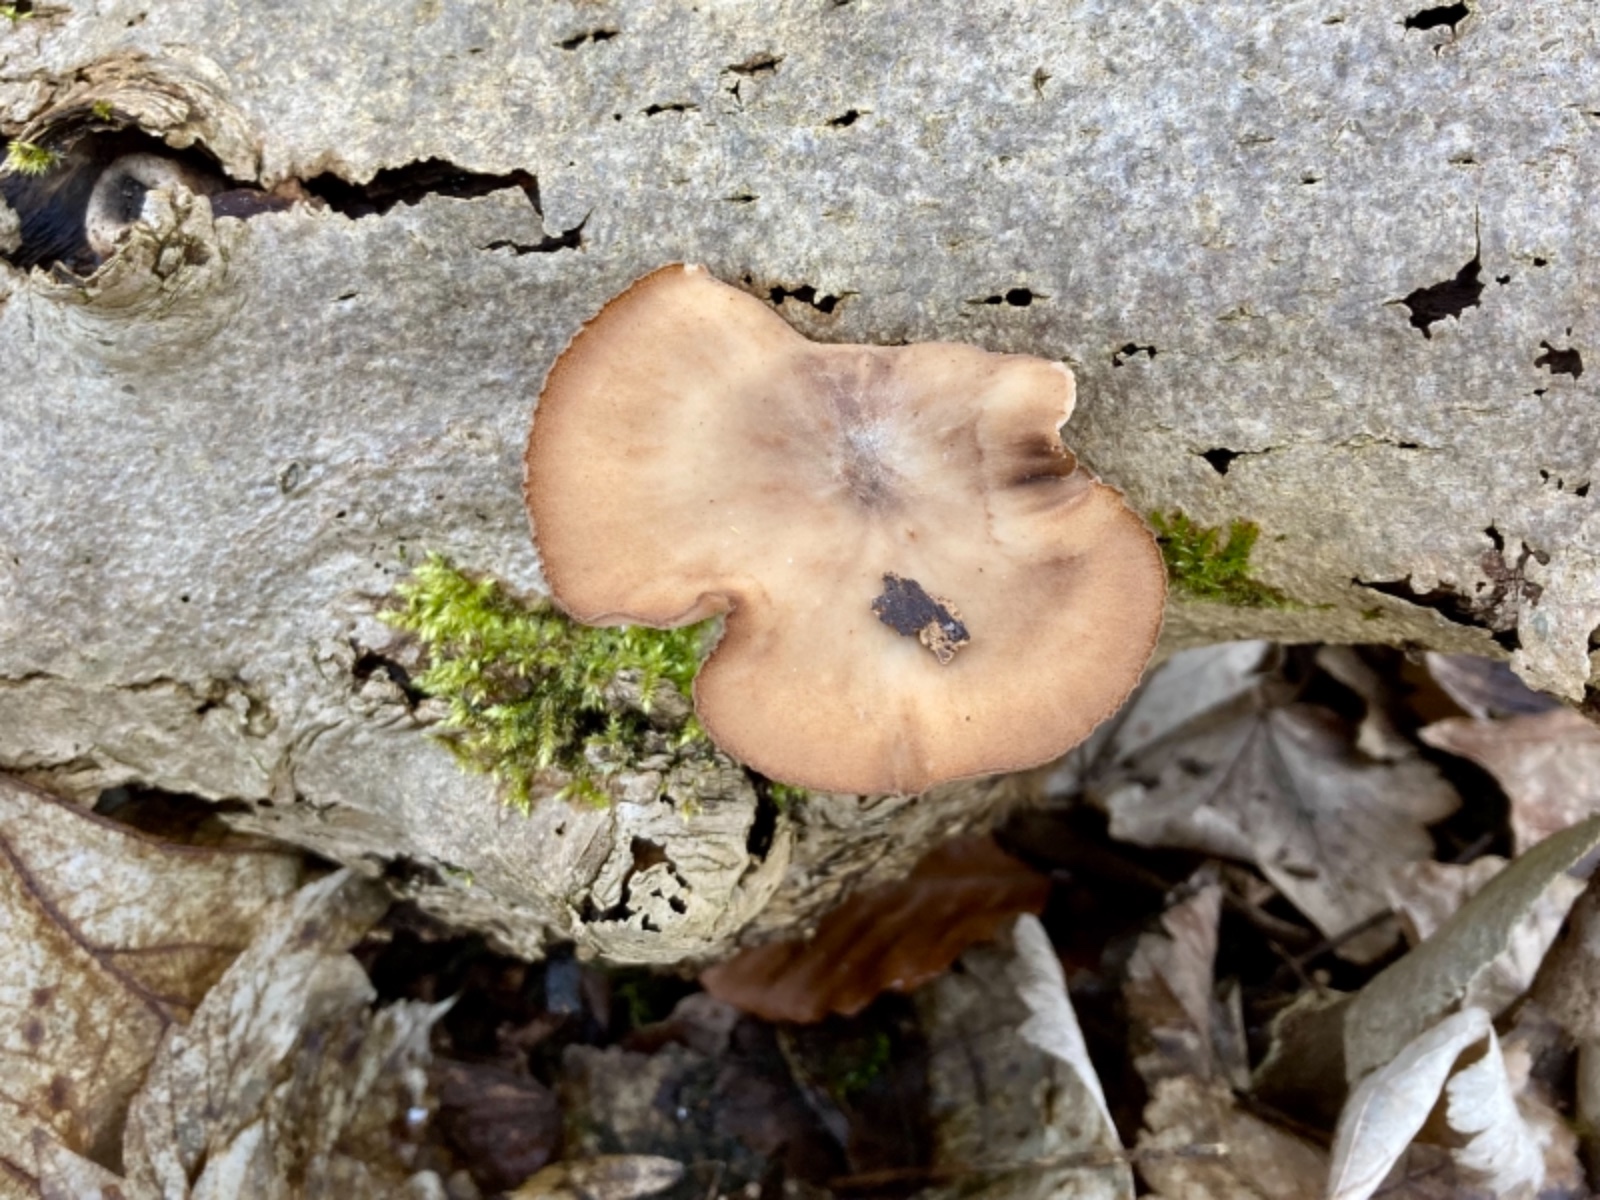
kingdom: Fungi
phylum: Basidiomycota
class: Agaricomycetes
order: Polyporales
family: Polyporaceae
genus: Lentinus
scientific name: Lentinus brumalis
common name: vinter-stilkporesvamp
